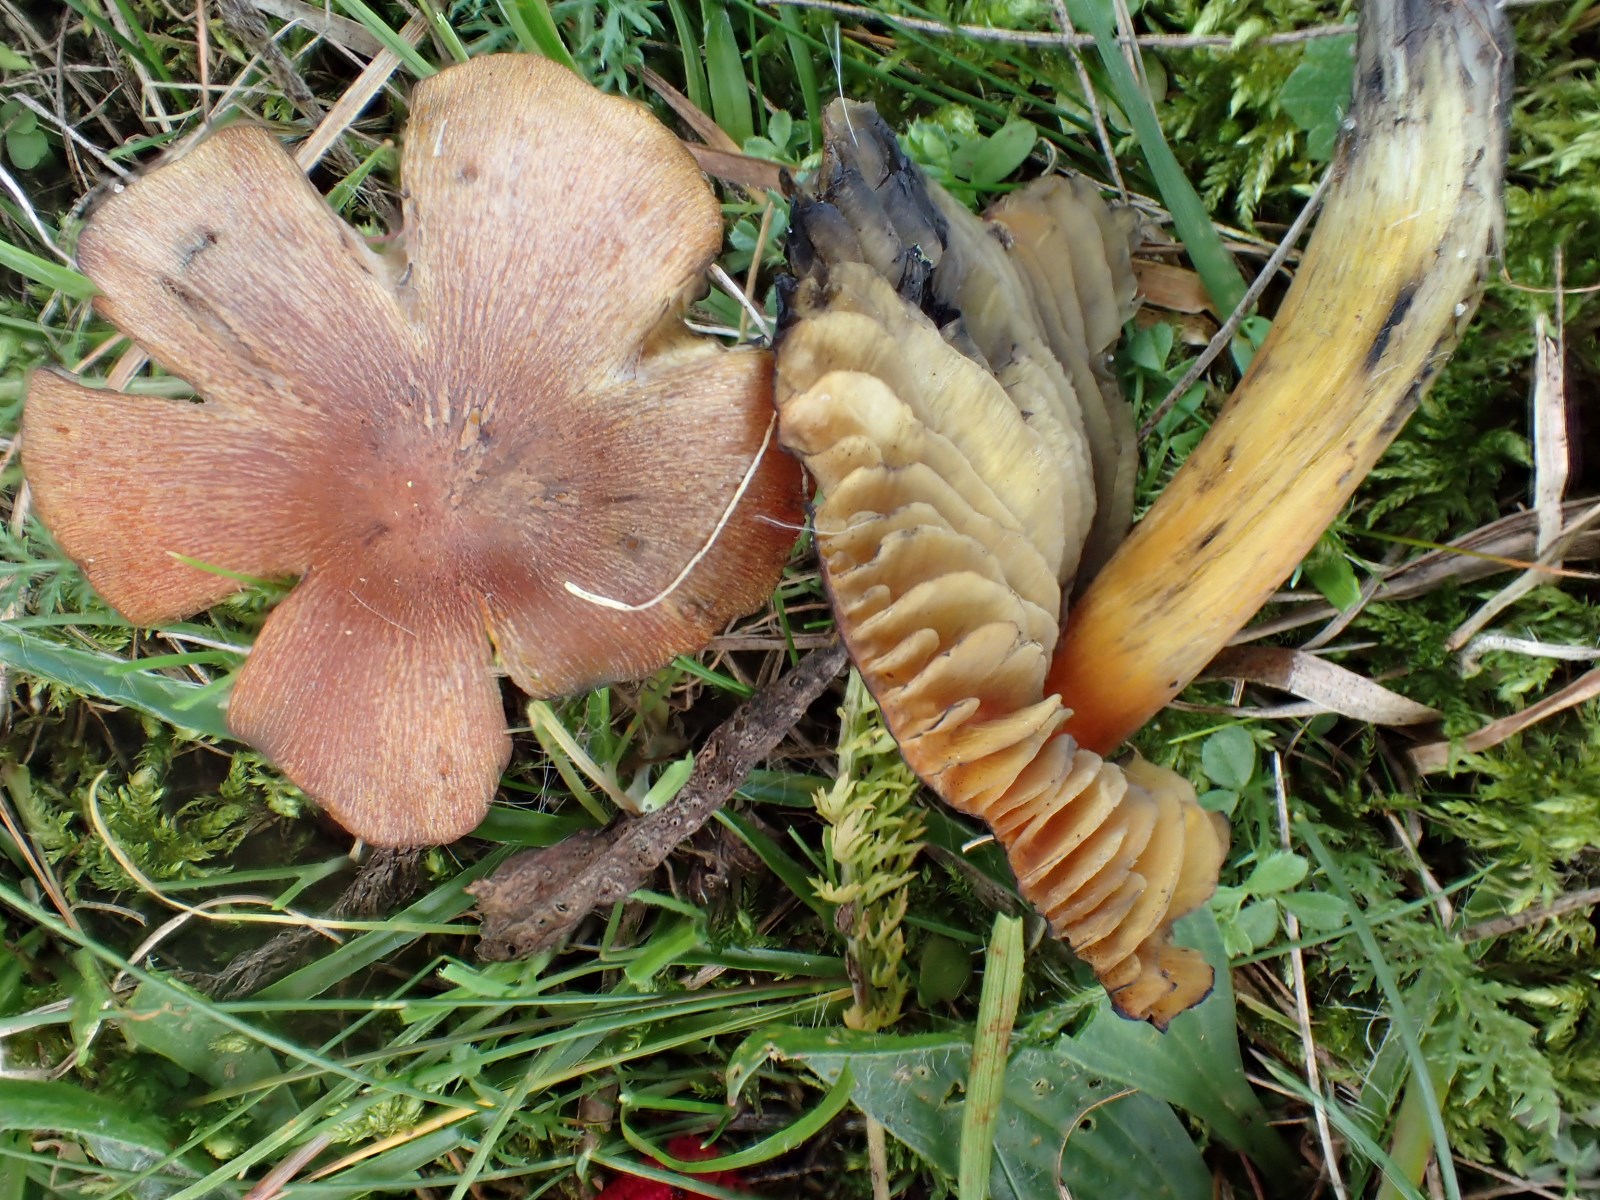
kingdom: Fungi
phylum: Basidiomycota
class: Agaricomycetes
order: Agaricales
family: Hygrophoraceae
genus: Hygrocybe
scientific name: Hygrocybe conica
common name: kegle-vokshat
